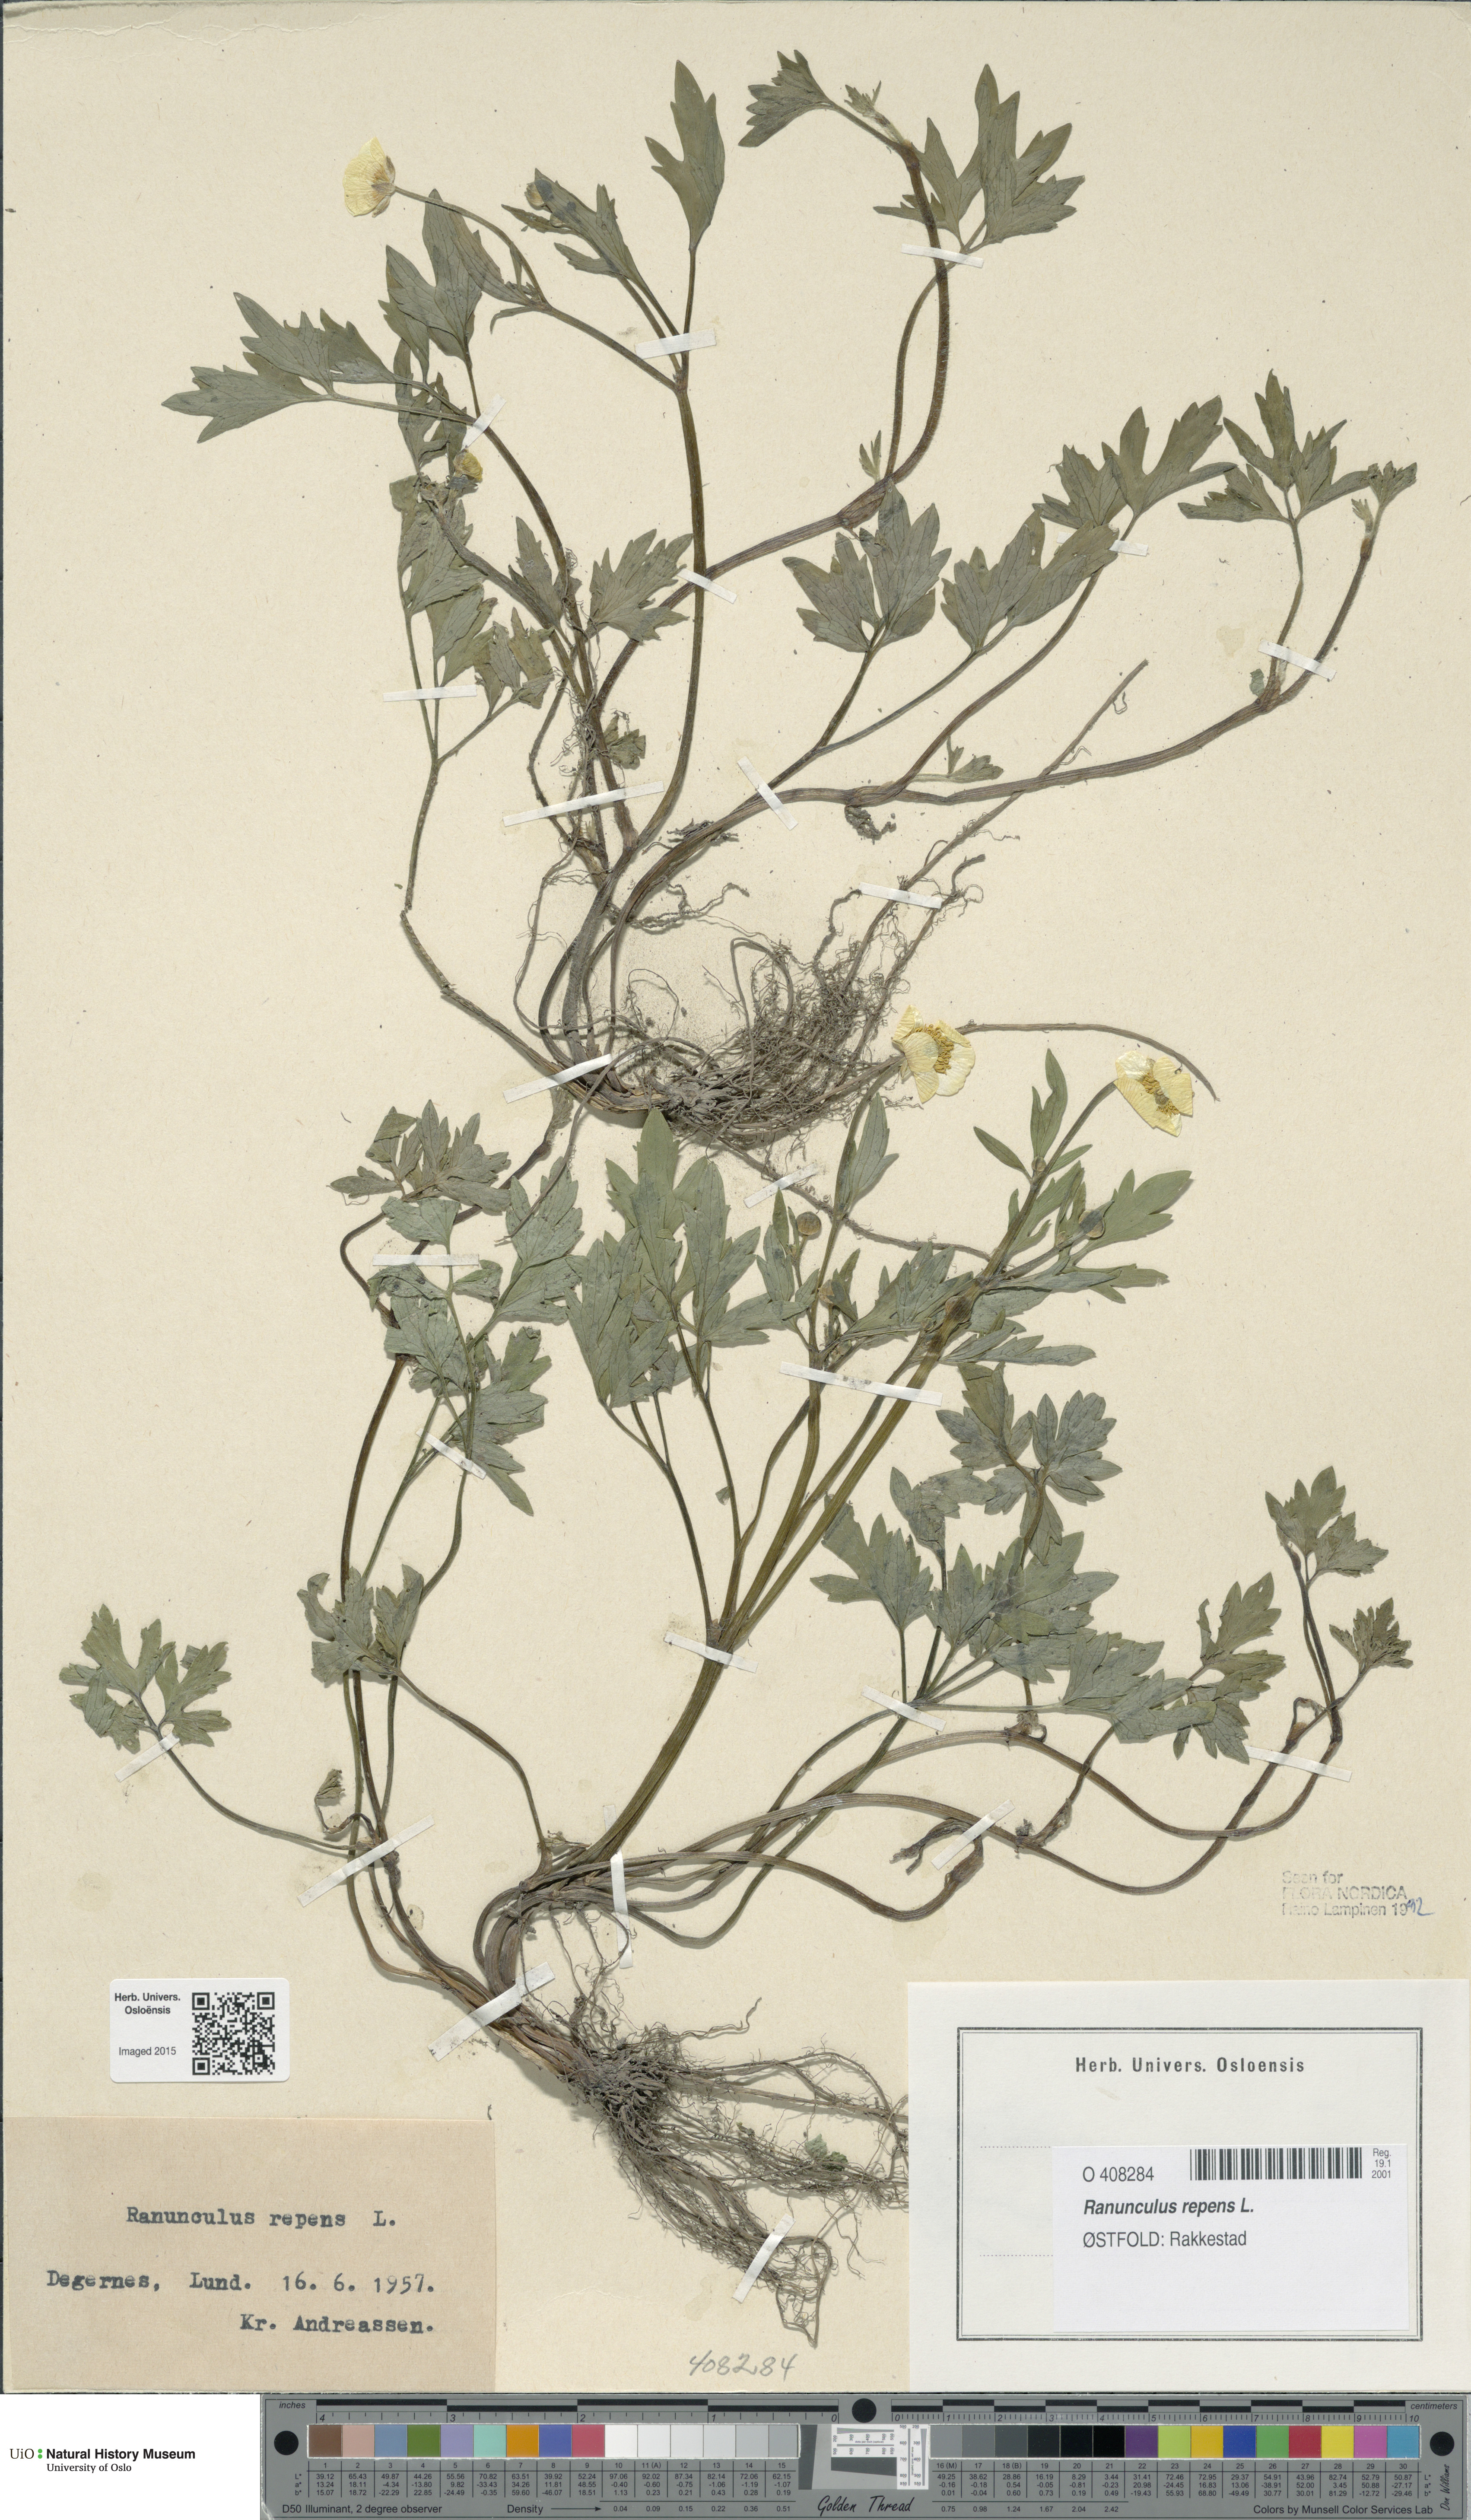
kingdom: Plantae
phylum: Tracheophyta
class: Magnoliopsida
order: Ranunculales
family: Ranunculaceae
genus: Ranunculus
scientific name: Ranunculus repens
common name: Creeping buttercup
